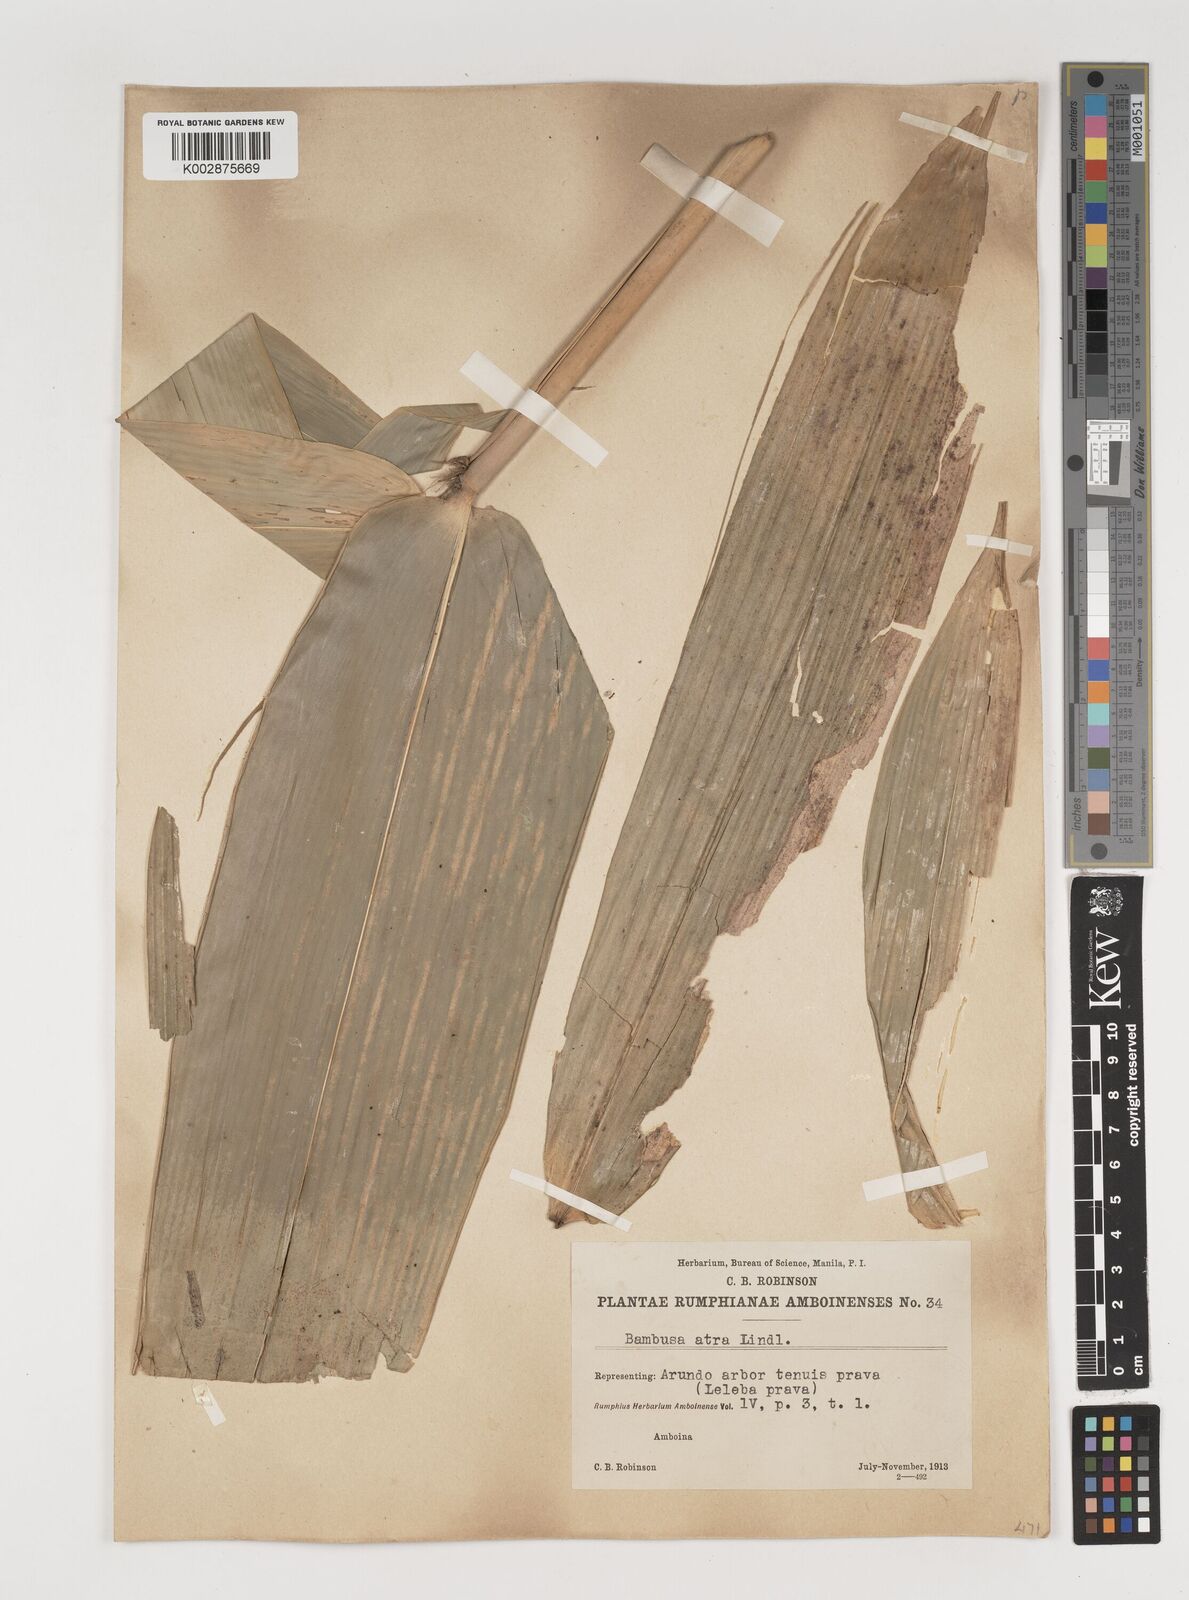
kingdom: Plantae
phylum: Tracheophyta
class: Liliopsida
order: Poales
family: Poaceae
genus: Neololeba
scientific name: Neololeba atra
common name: Cape bamboo
